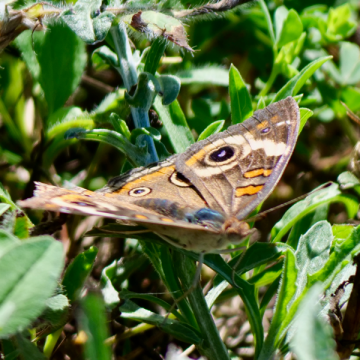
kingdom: Animalia
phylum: Arthropoda
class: Insecta
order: Lepidoptera
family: Nymphalidae
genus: Junonia
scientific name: Junonia coenia
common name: Common Buckeye
